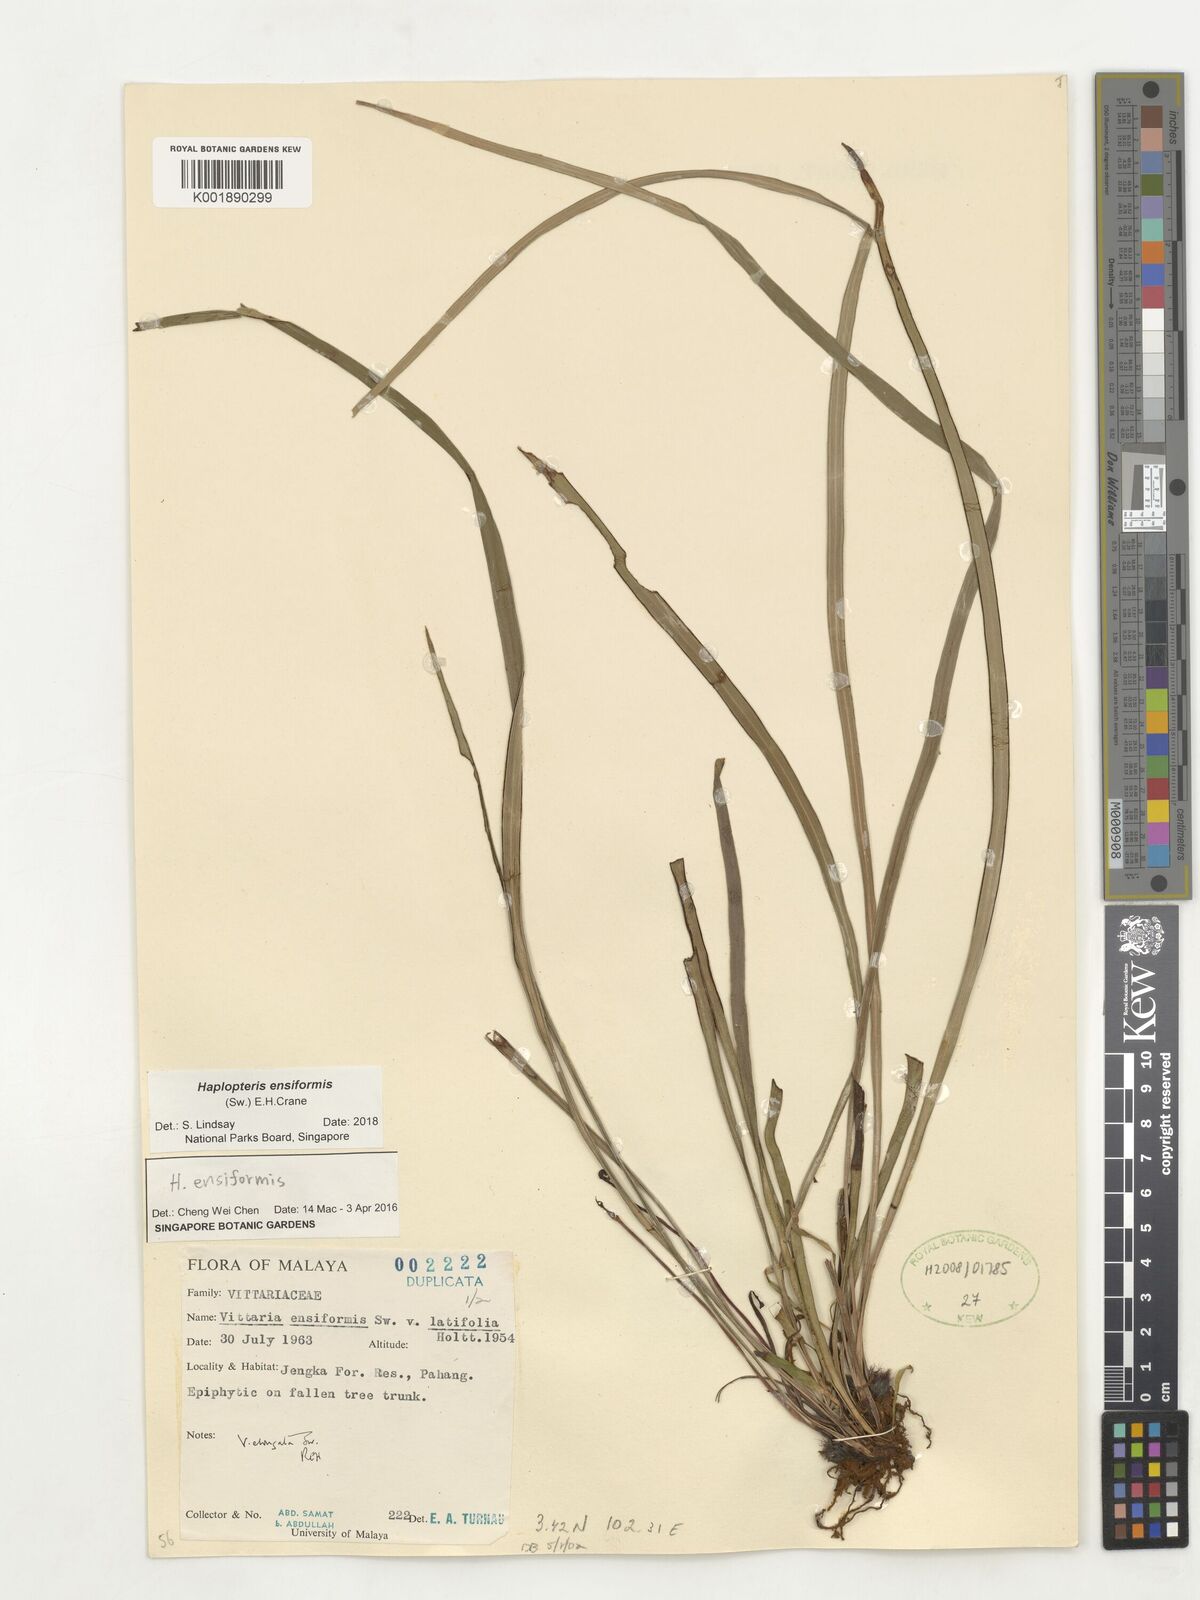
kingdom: Plantae
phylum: Tracheophyta
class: Polypodiopsida
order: Polypodiales
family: Pteridaceae
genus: Haplopteris
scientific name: Haplopteris ensiformis
